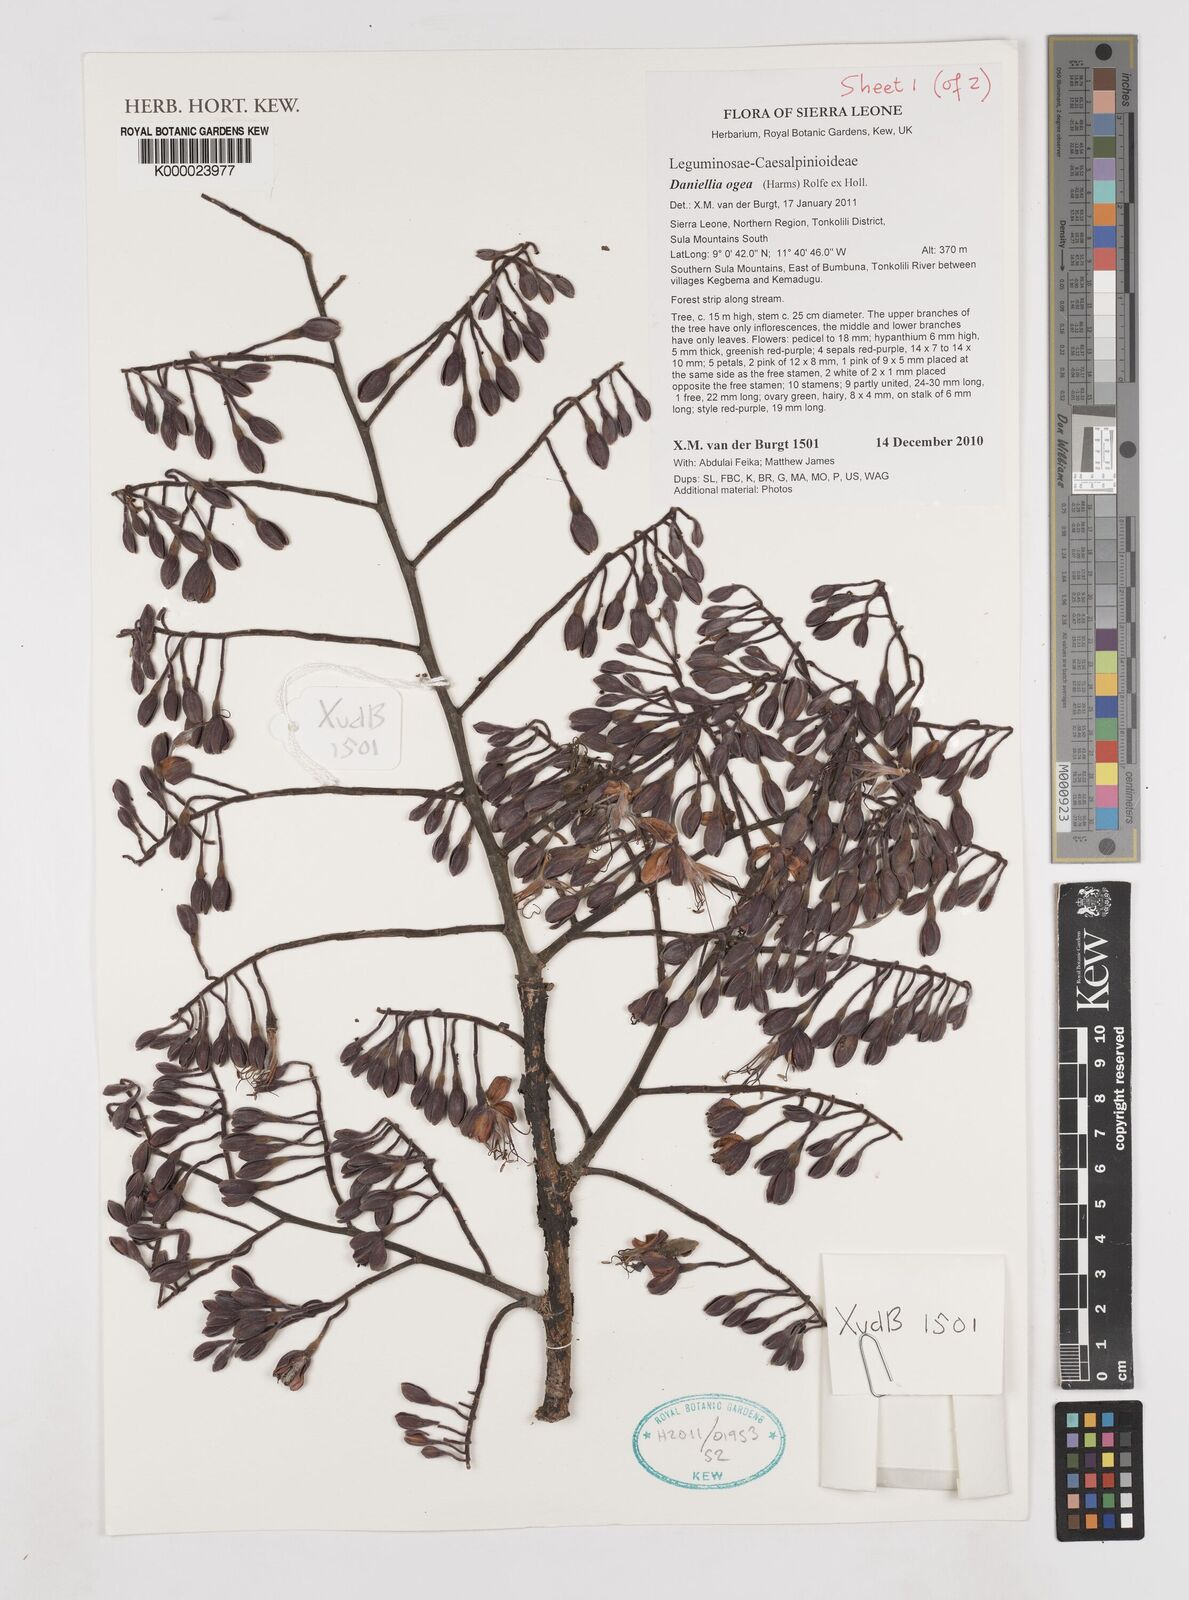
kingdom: Plantae
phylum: Tracheophyta
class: Magnoliopsida
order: Fabales
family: Fabaceae
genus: Daniellia
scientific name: Daniellia ogea
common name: Accra copal
